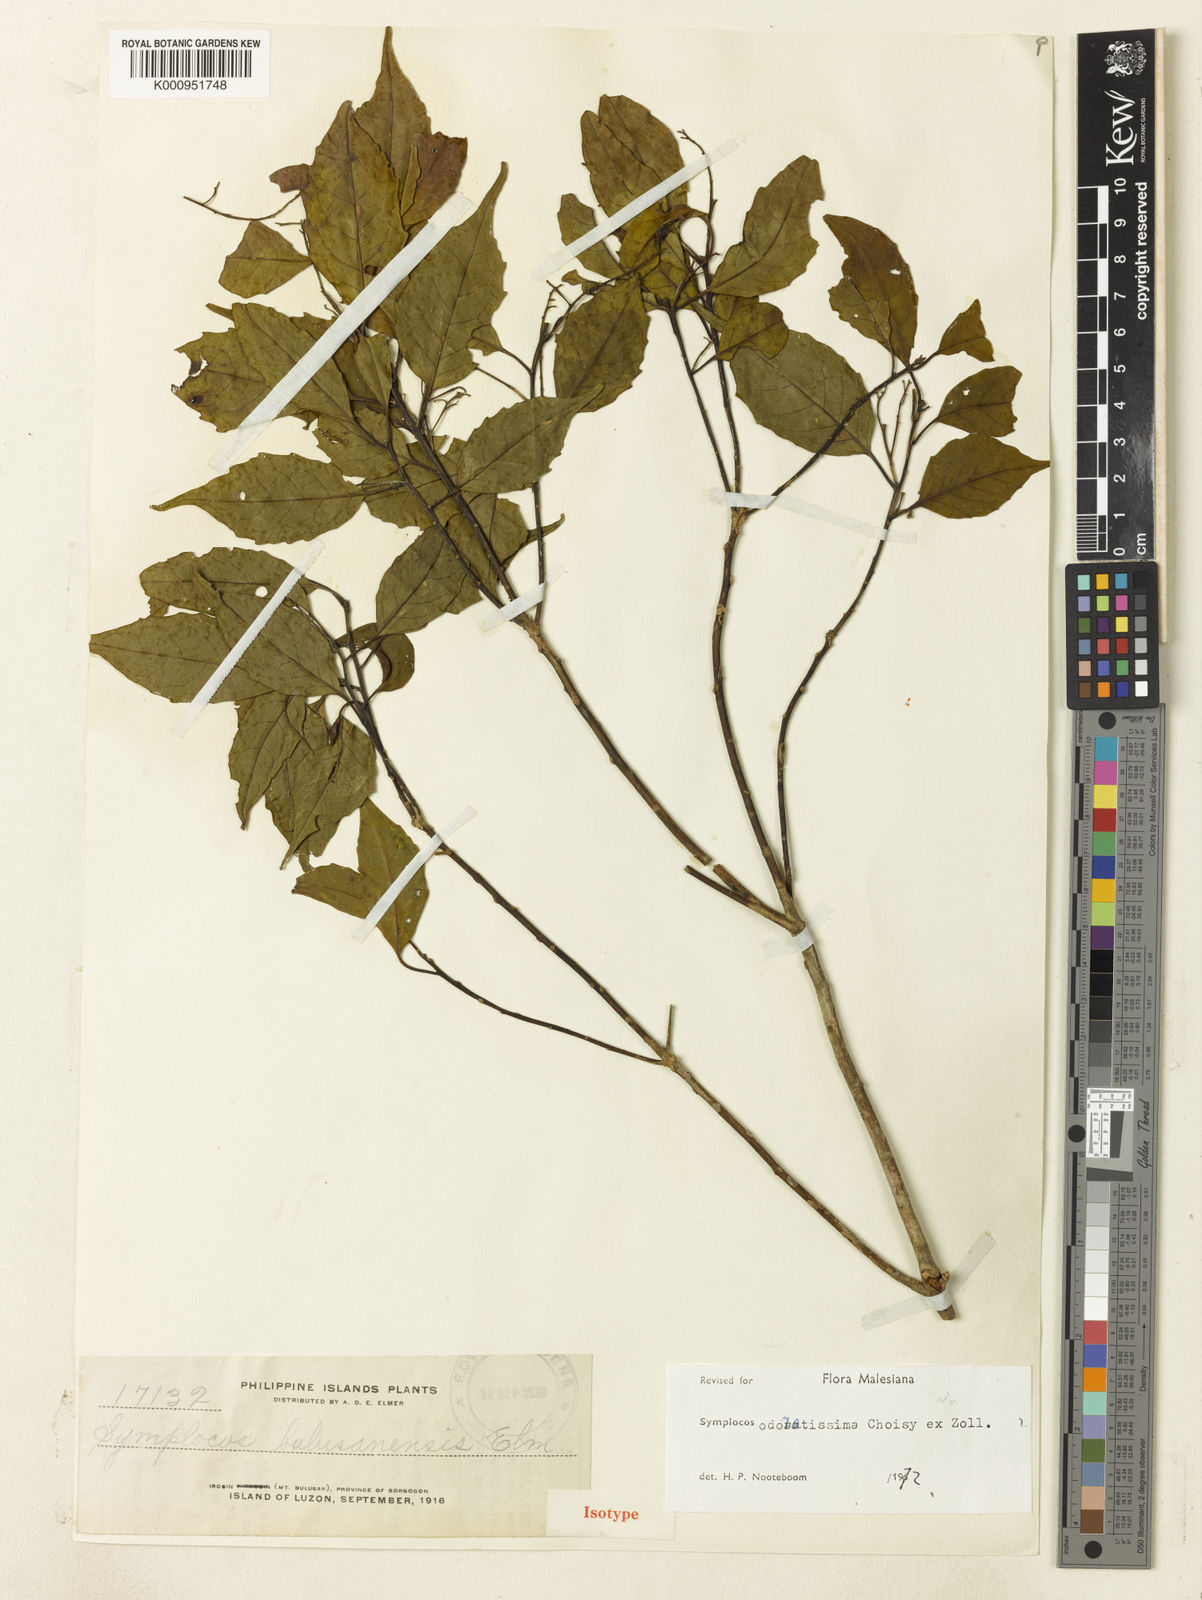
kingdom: Plantae
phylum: Tracheophyta
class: Magnoliopsida
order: Ericales
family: Symplocaceae
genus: Symplocos
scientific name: Symplocos odoratissima
